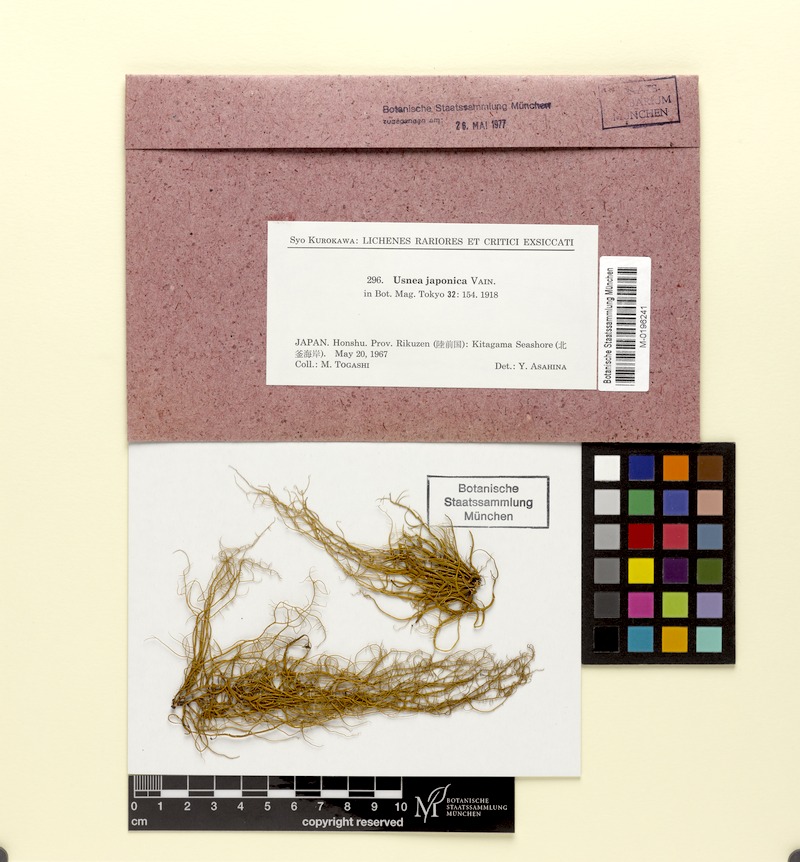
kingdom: Fungi
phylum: Ascomycota
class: Lecanoromycetes
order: Lecanorales
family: Parmeliaceae
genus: Usnea
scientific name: Usnea japonica
